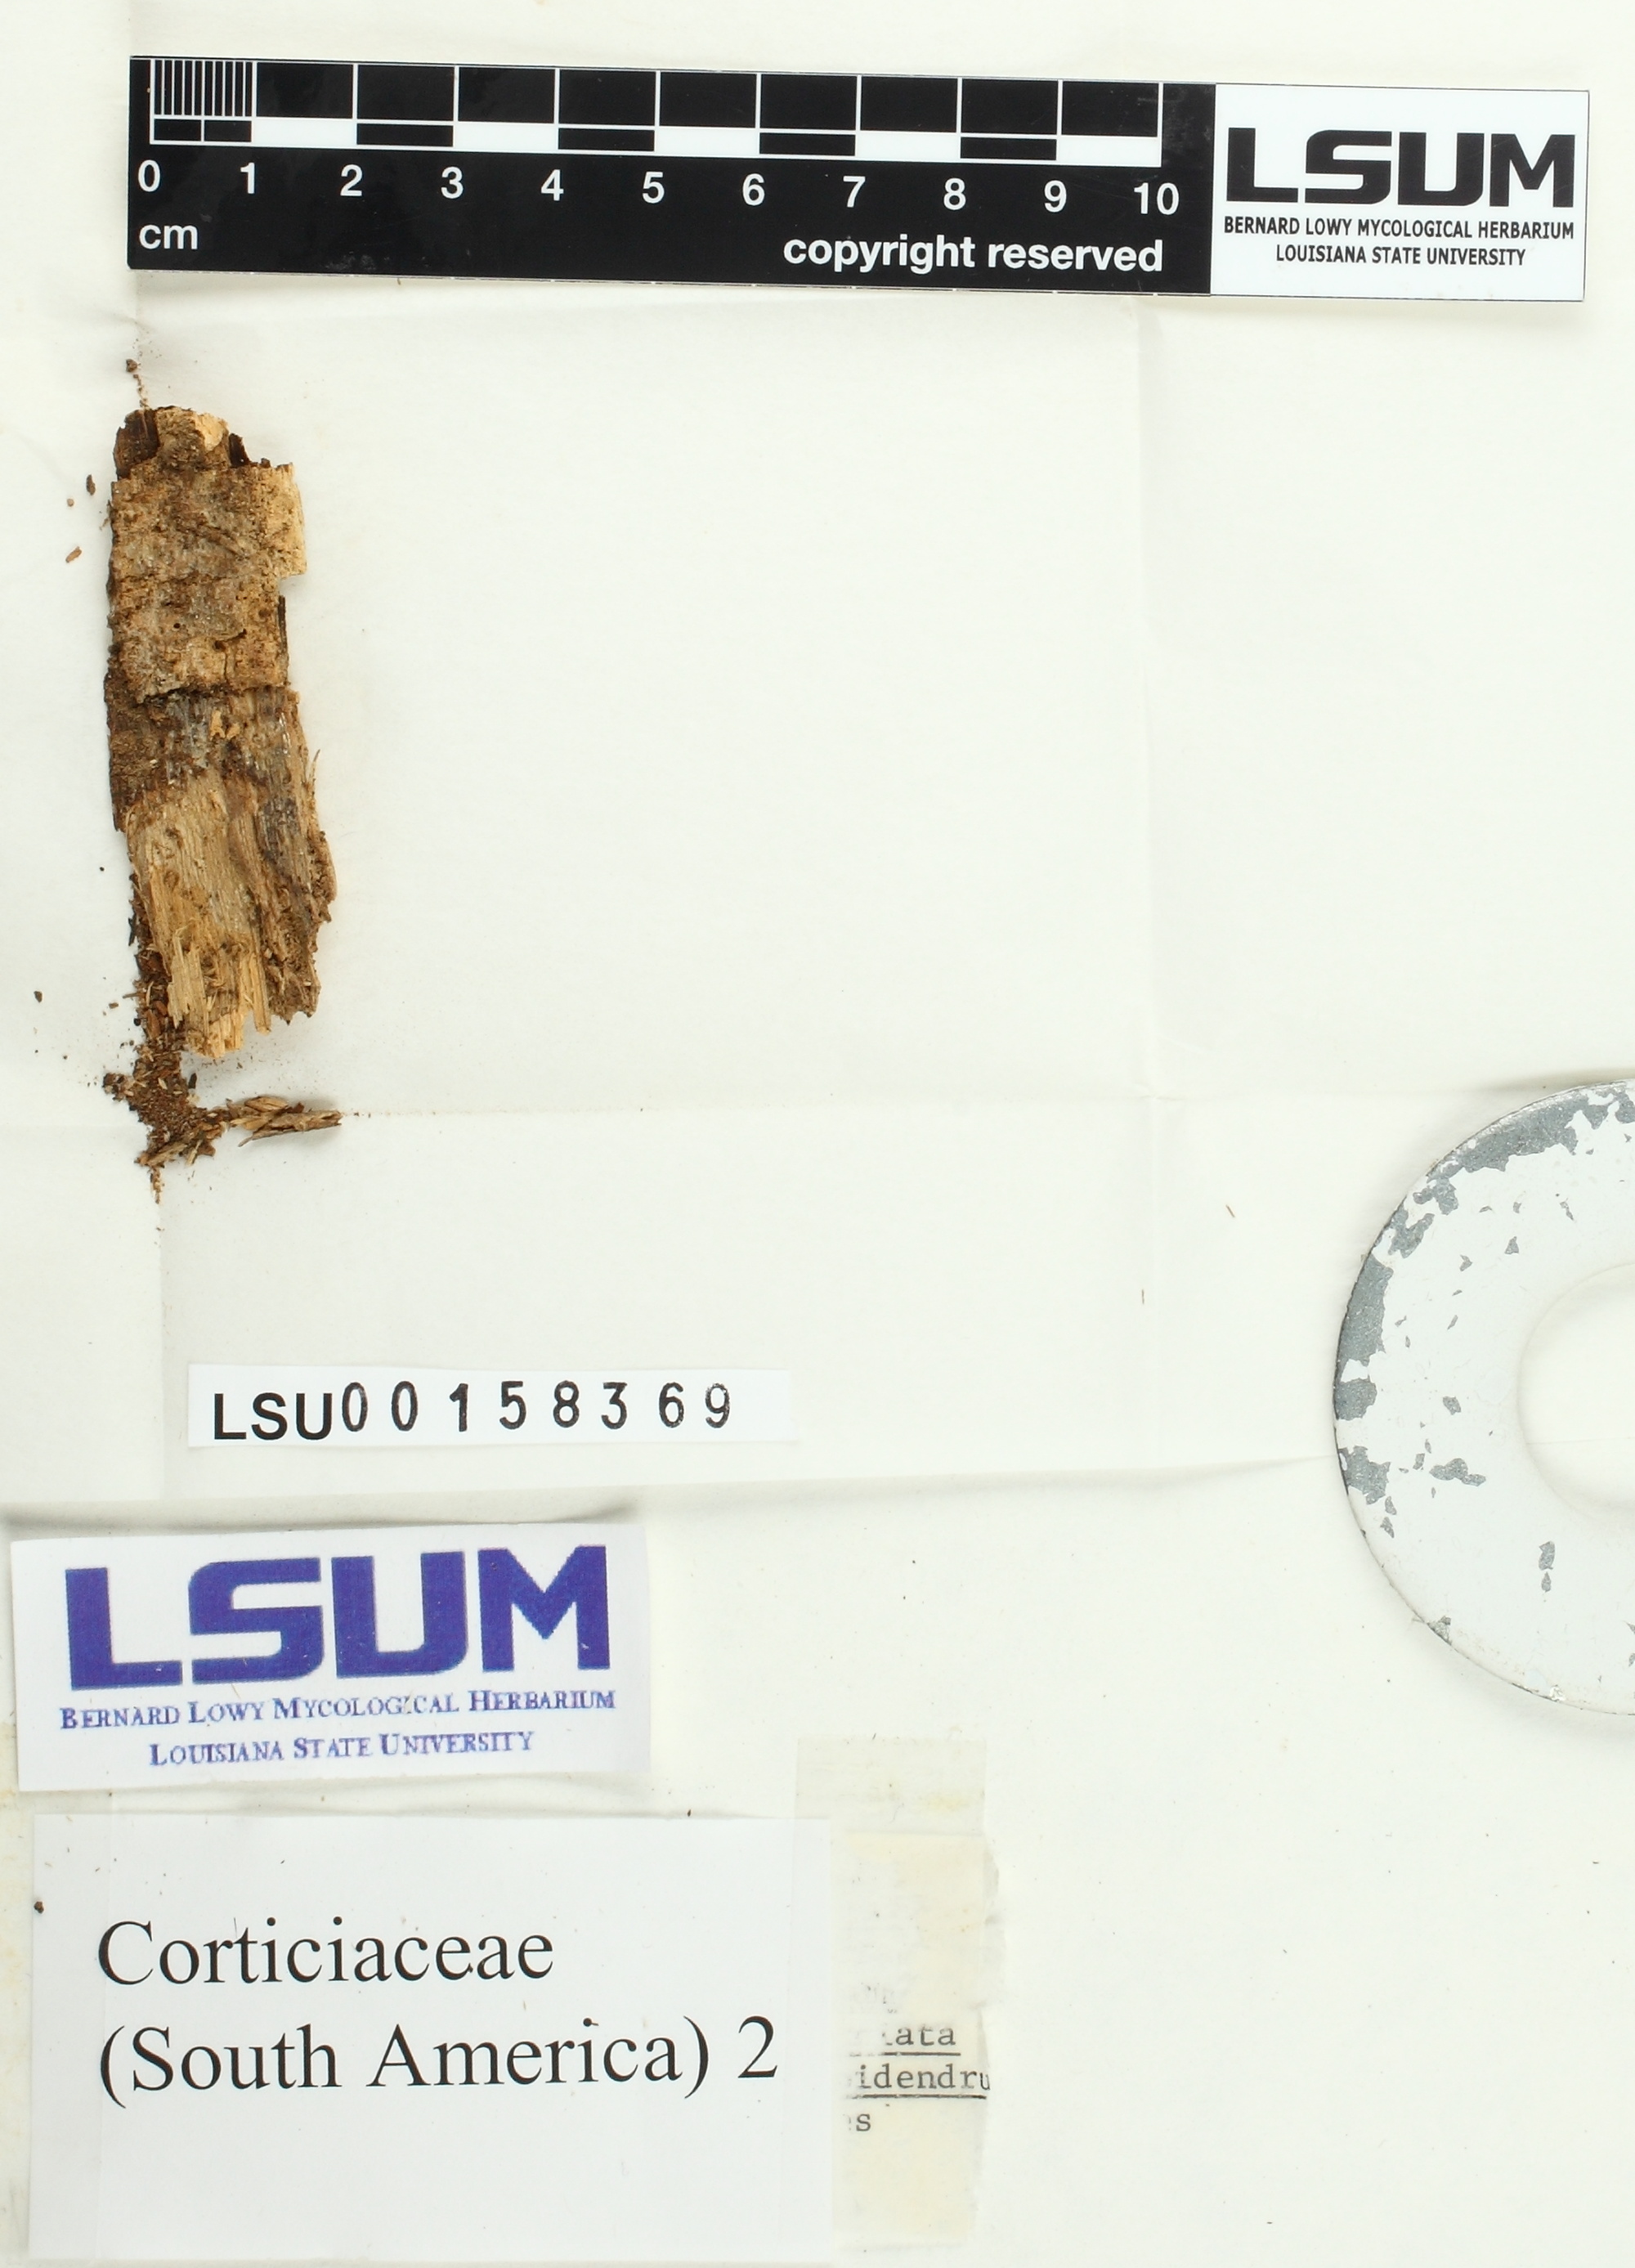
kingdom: Fungi
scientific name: Fungi
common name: Fungi
